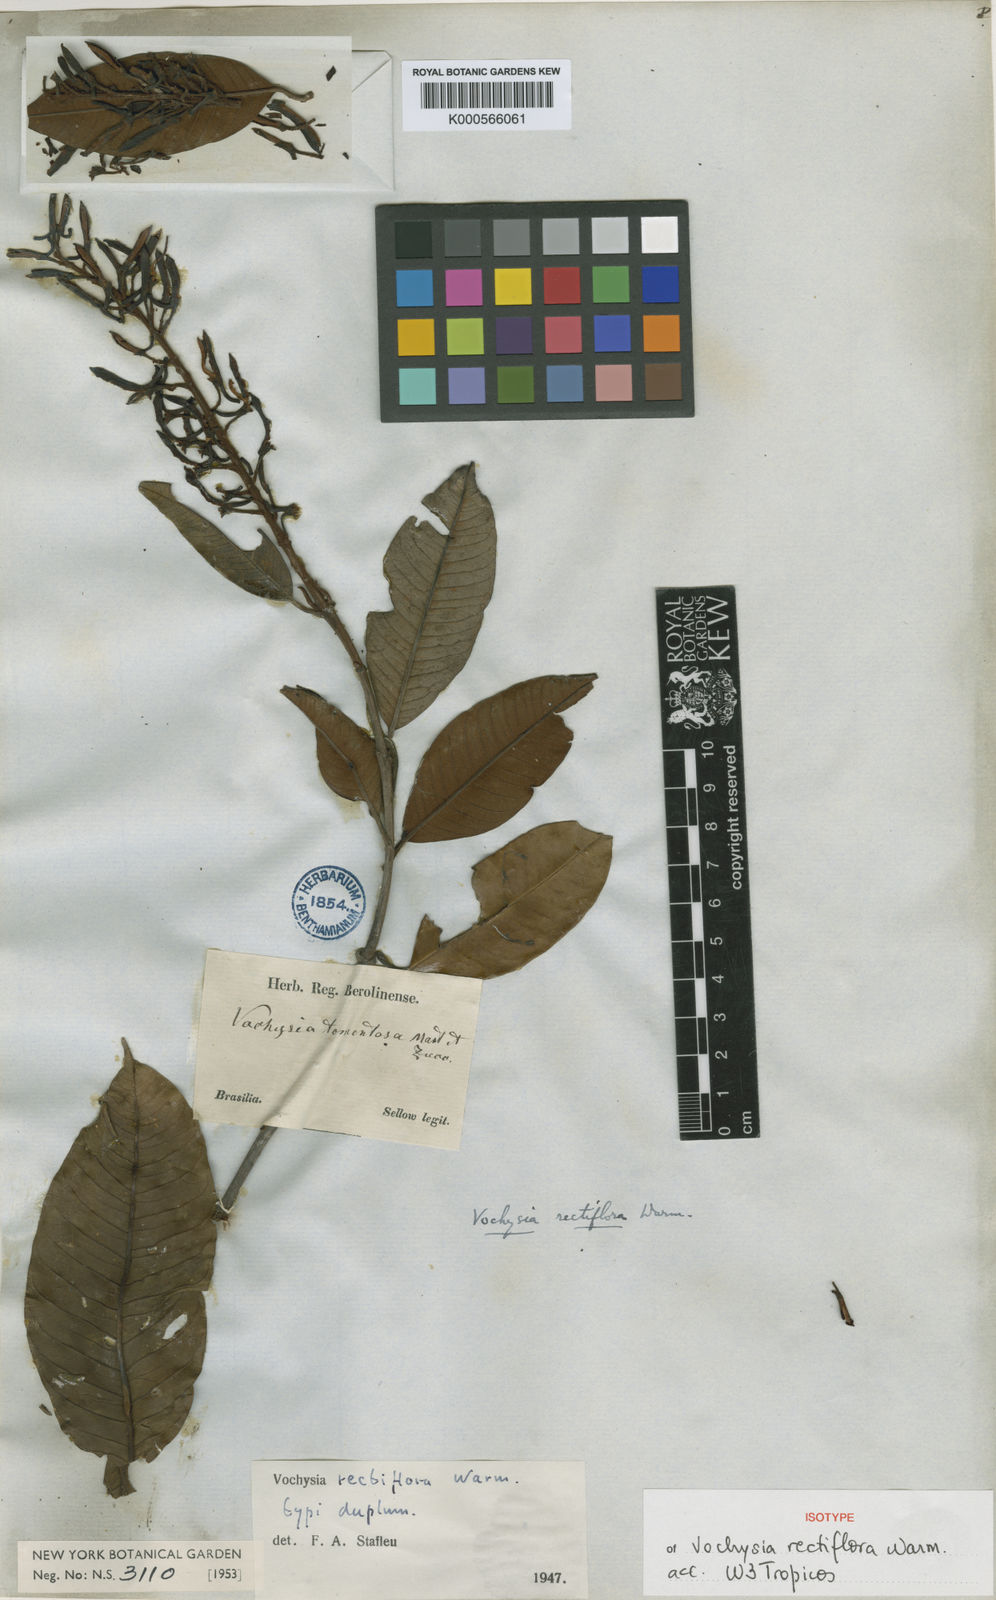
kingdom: Plantae
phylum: Tracheophyta
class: Magnoliopsida
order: Myrtales
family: Vochysiaceae
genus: Vochysia
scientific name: Vochysia rectiflora
